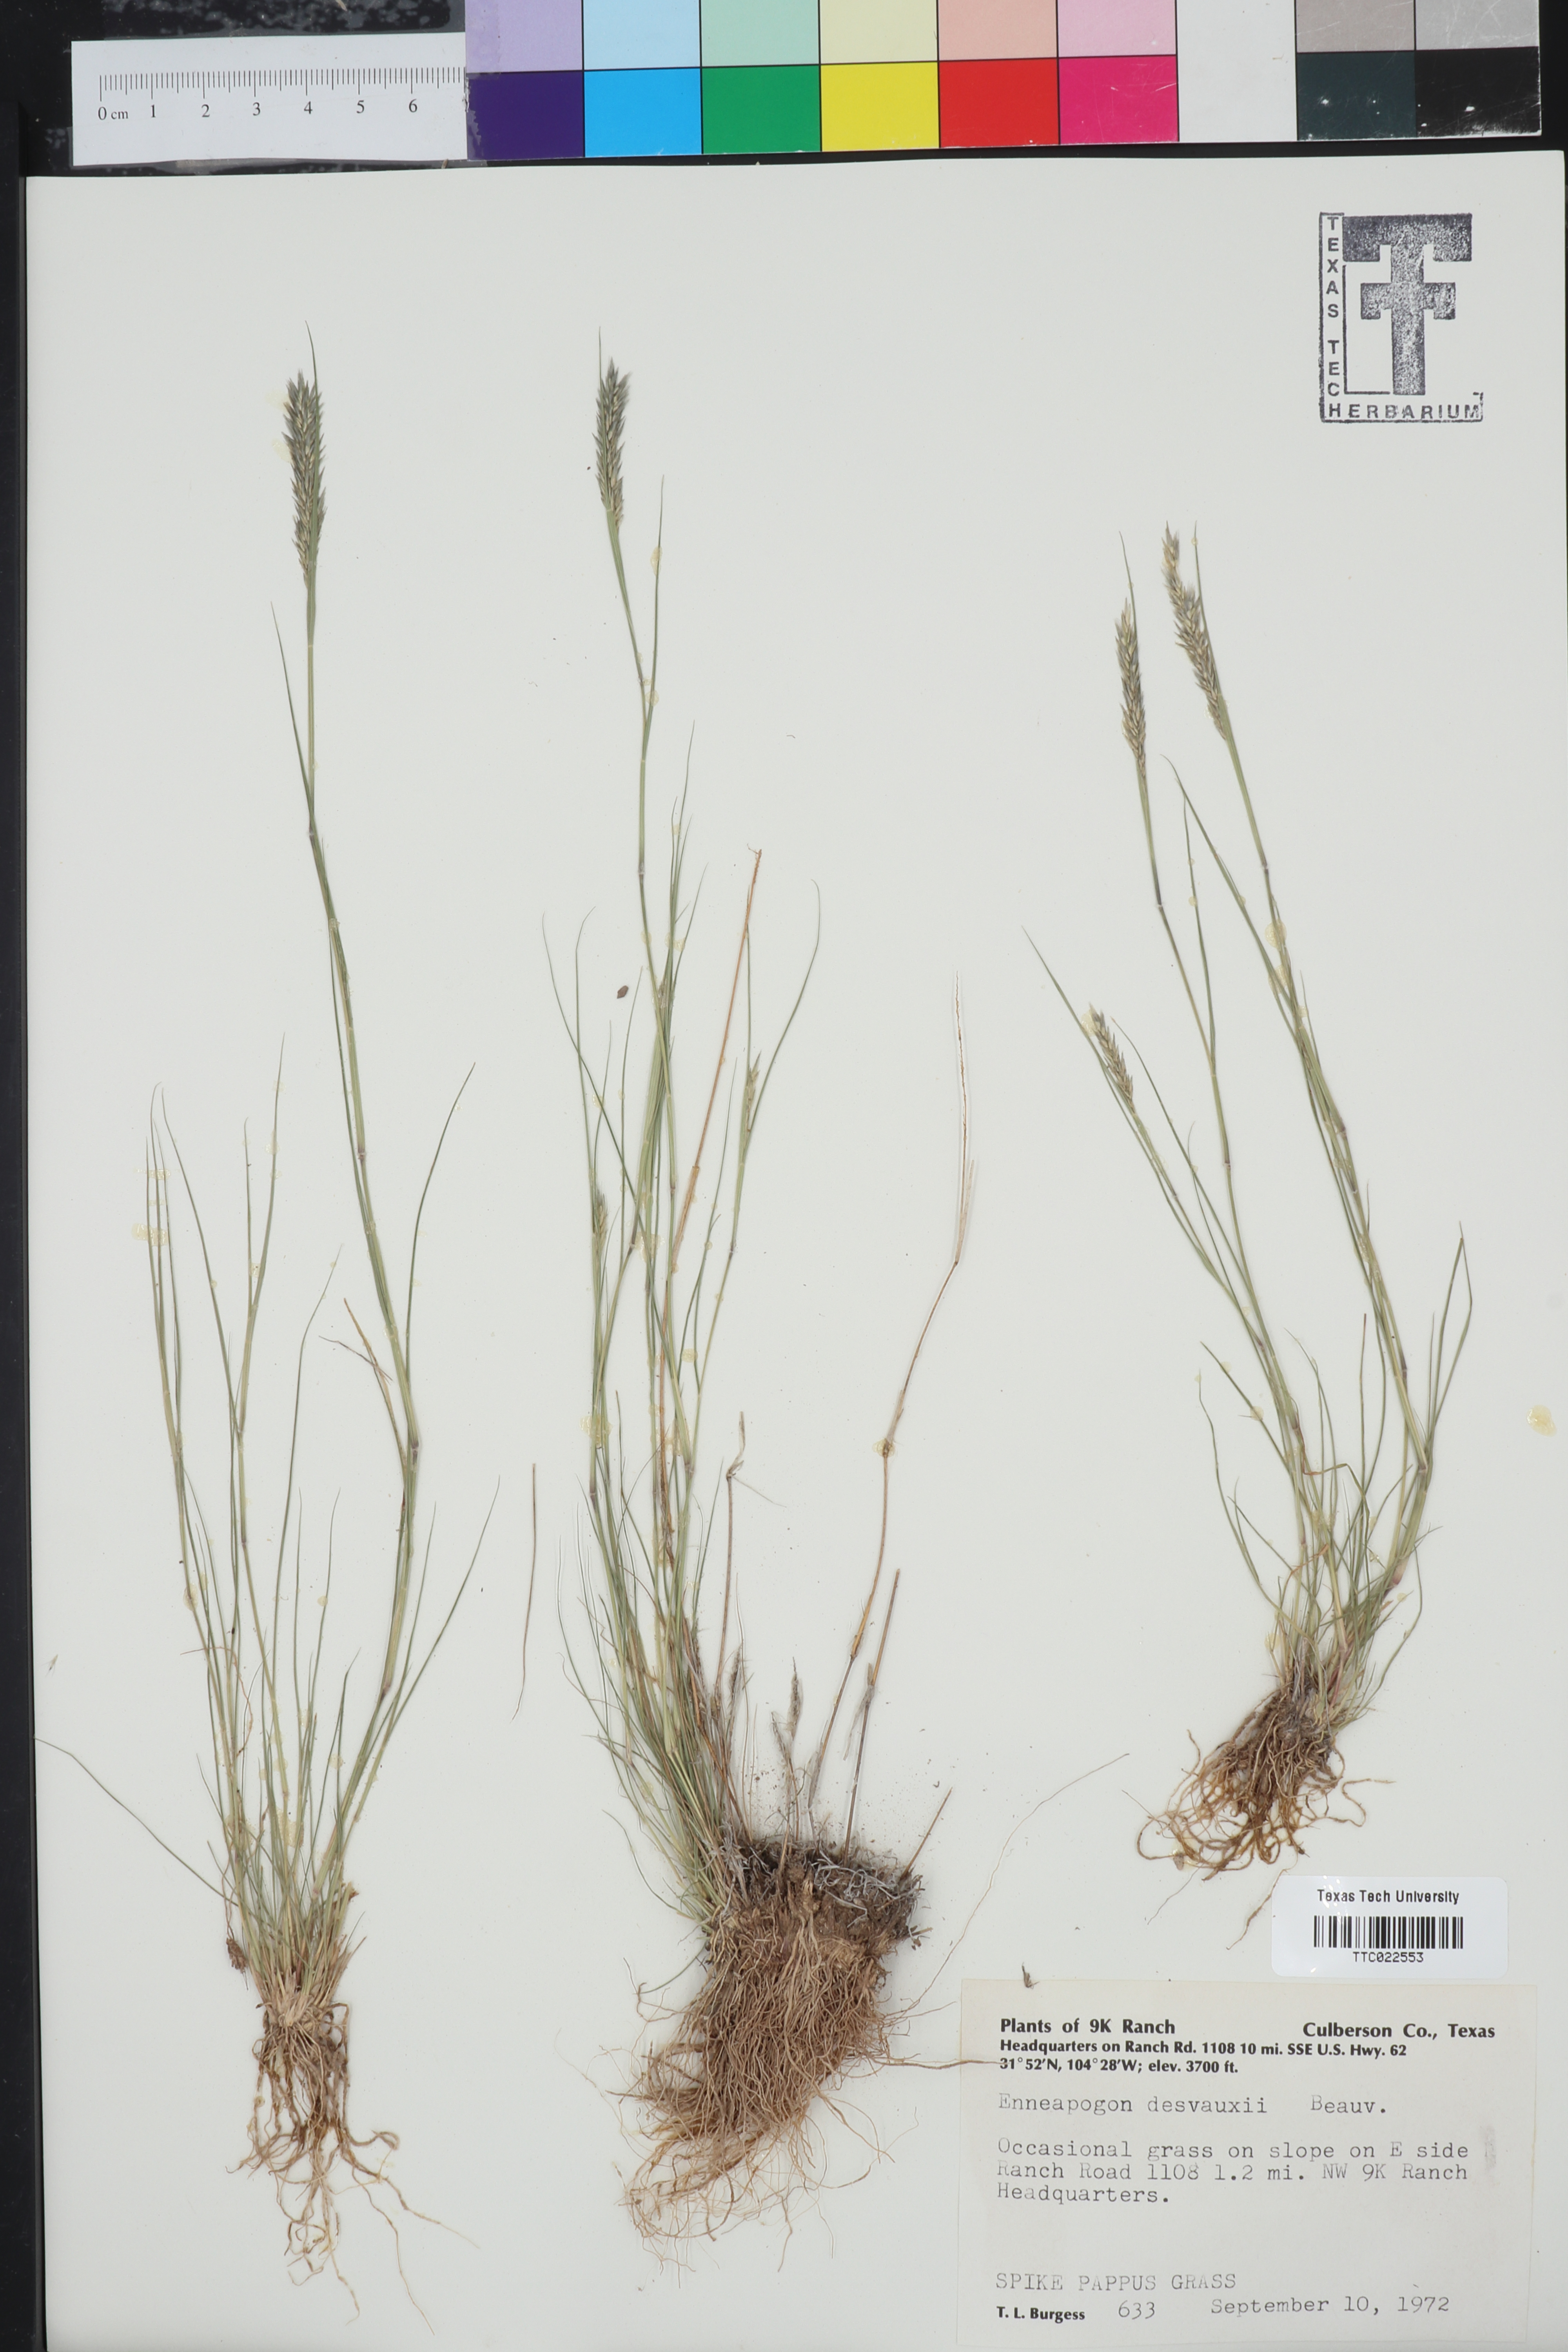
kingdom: Plantae
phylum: Tracheophyta
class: Liliopsida
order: Poales
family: Poaceae
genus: Enneapogon
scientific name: Enneapogon desvauxii
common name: Feather pappus grass
